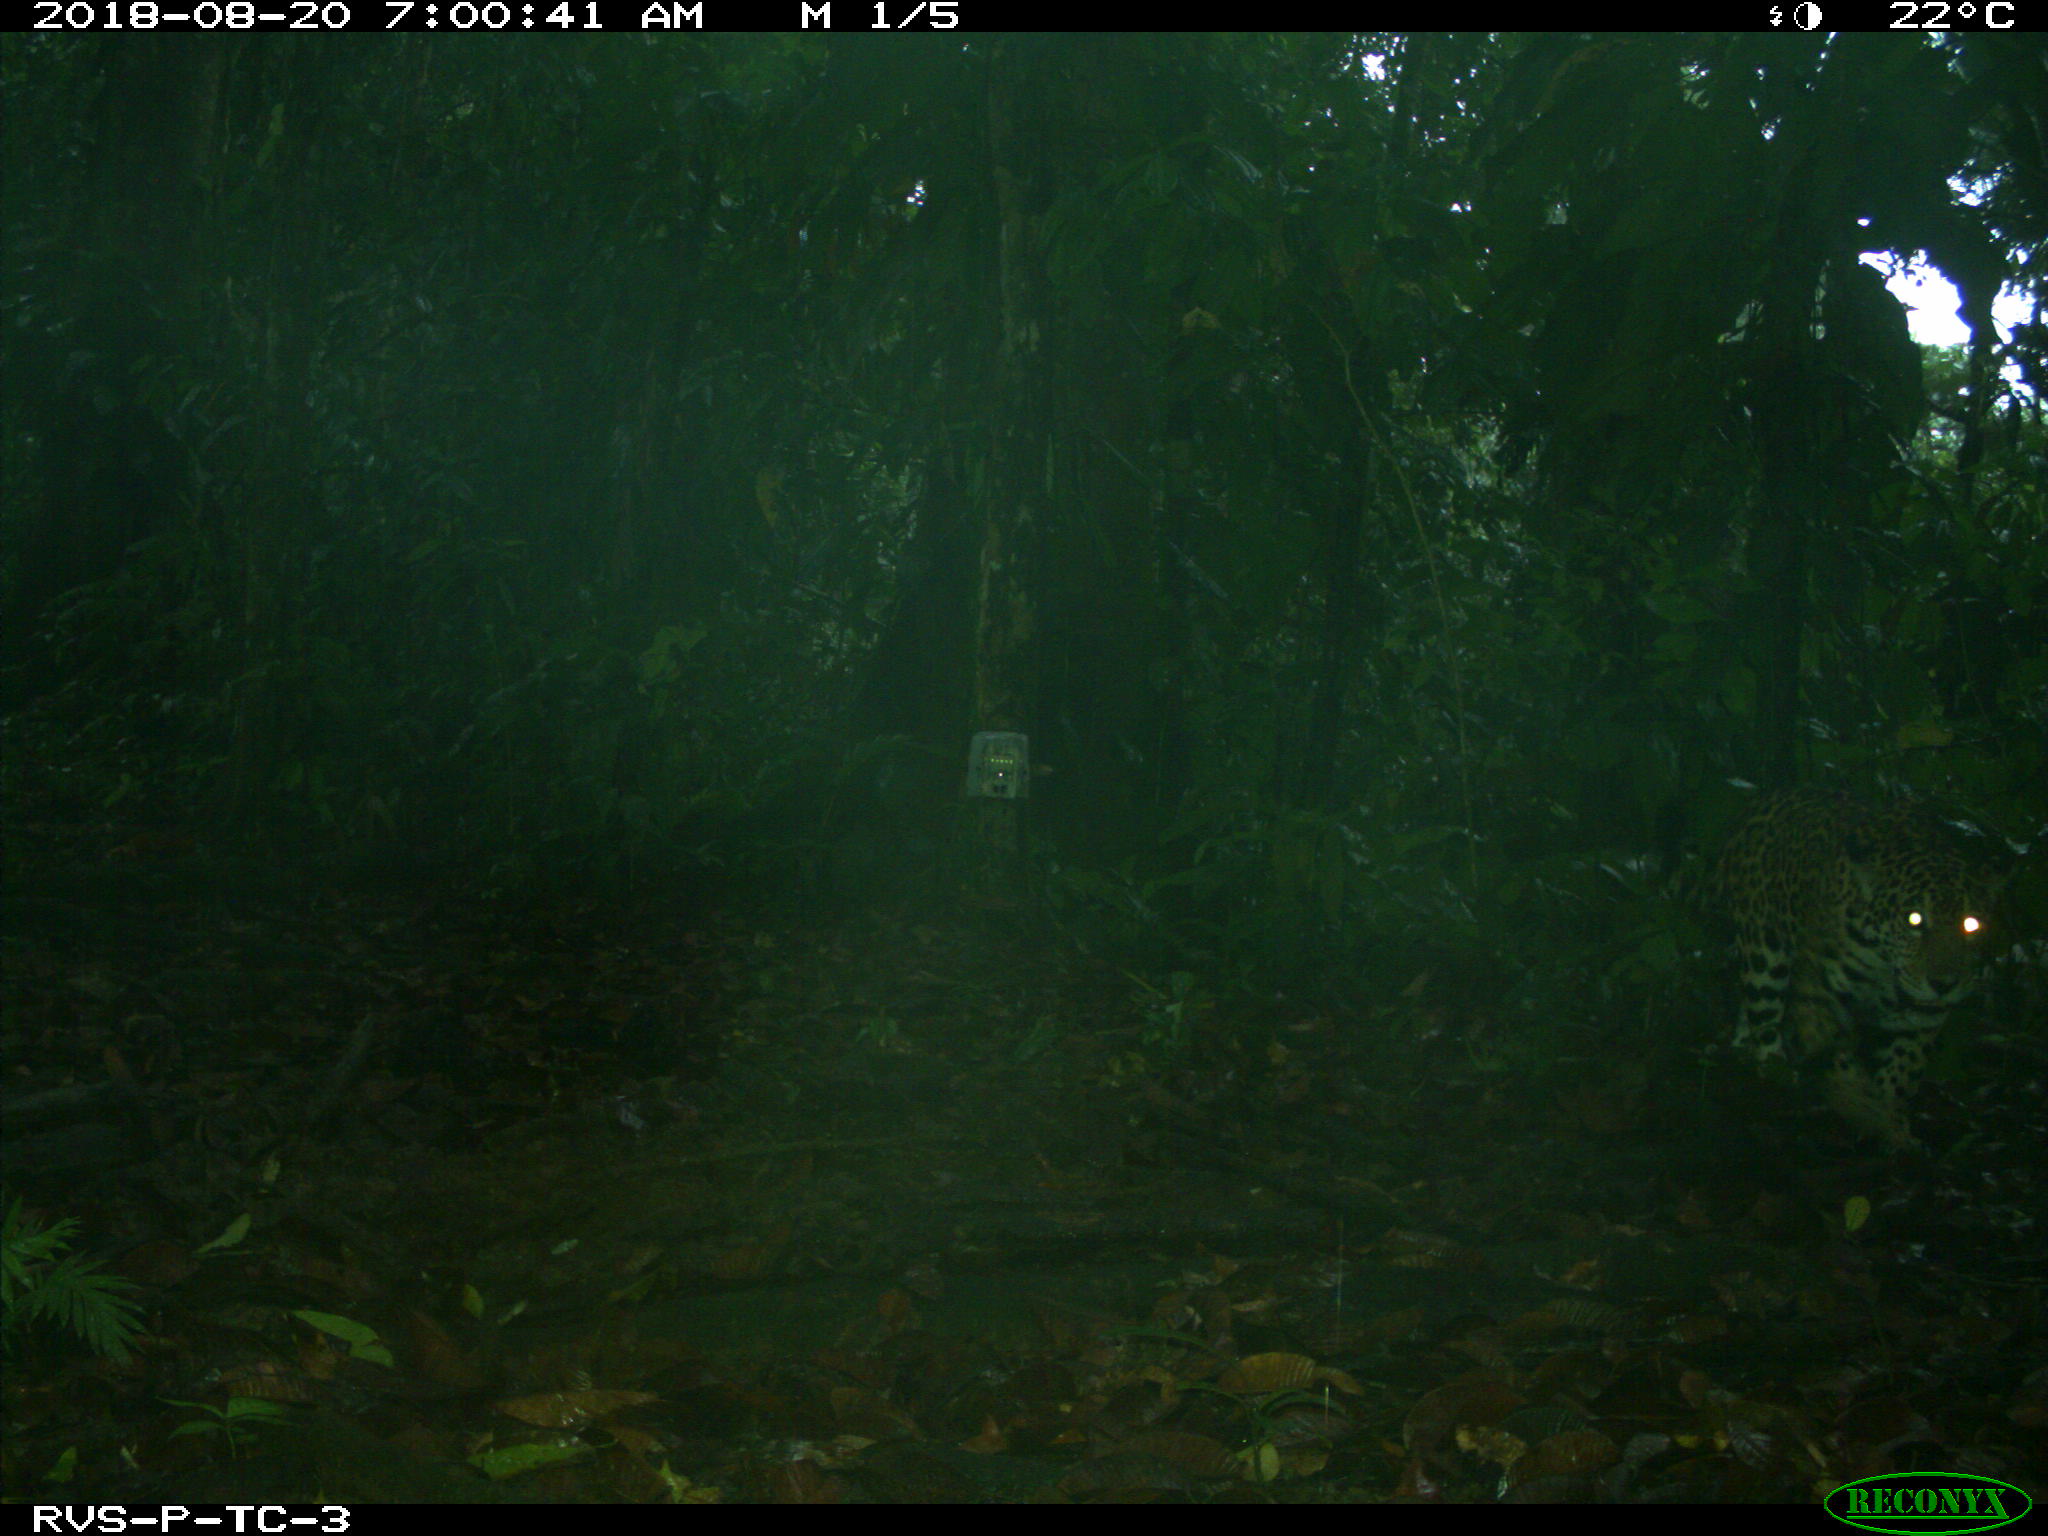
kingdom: Animalia
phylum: Chordata
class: Mammalia
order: Carnivora
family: Felidae
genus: Panthera
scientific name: Panthera onca
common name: Jaguar
